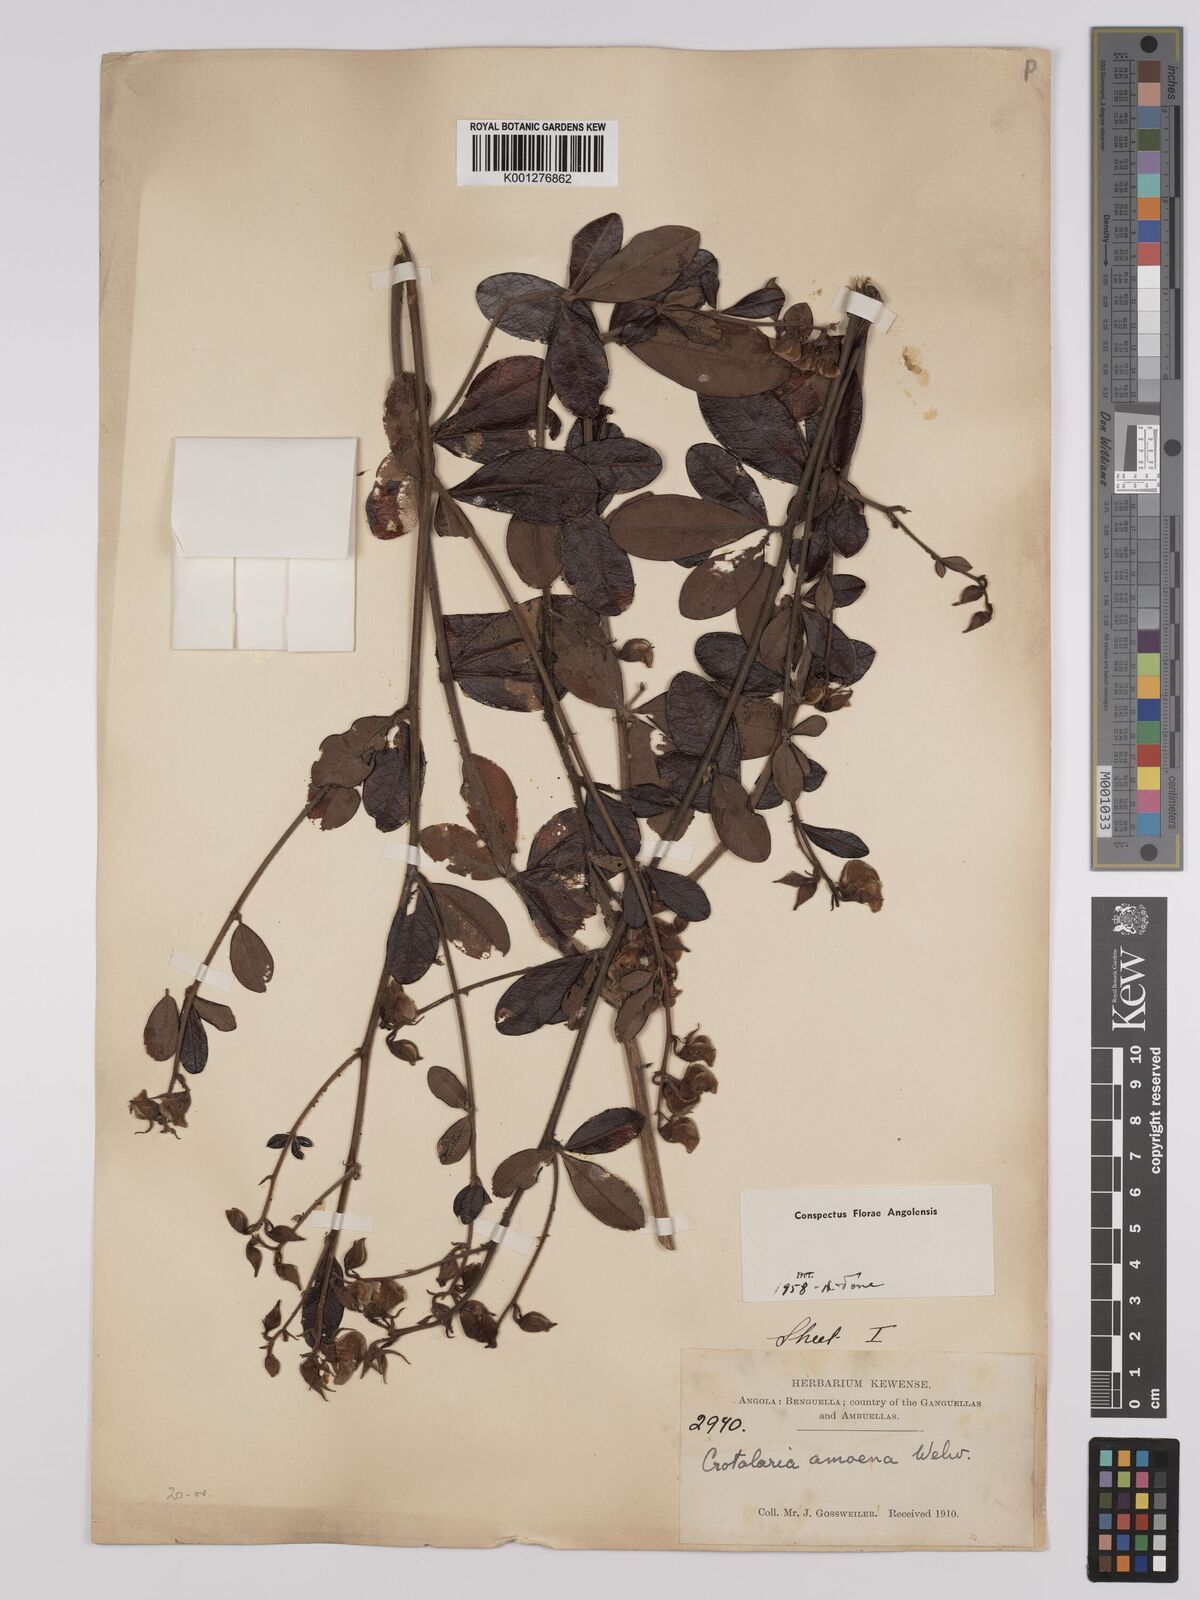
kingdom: Plantae
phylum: Tracheophyta
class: Magnoliopsida
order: Fabales
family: Fabaceae
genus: Crotalaria
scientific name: Crotalaria amoena
